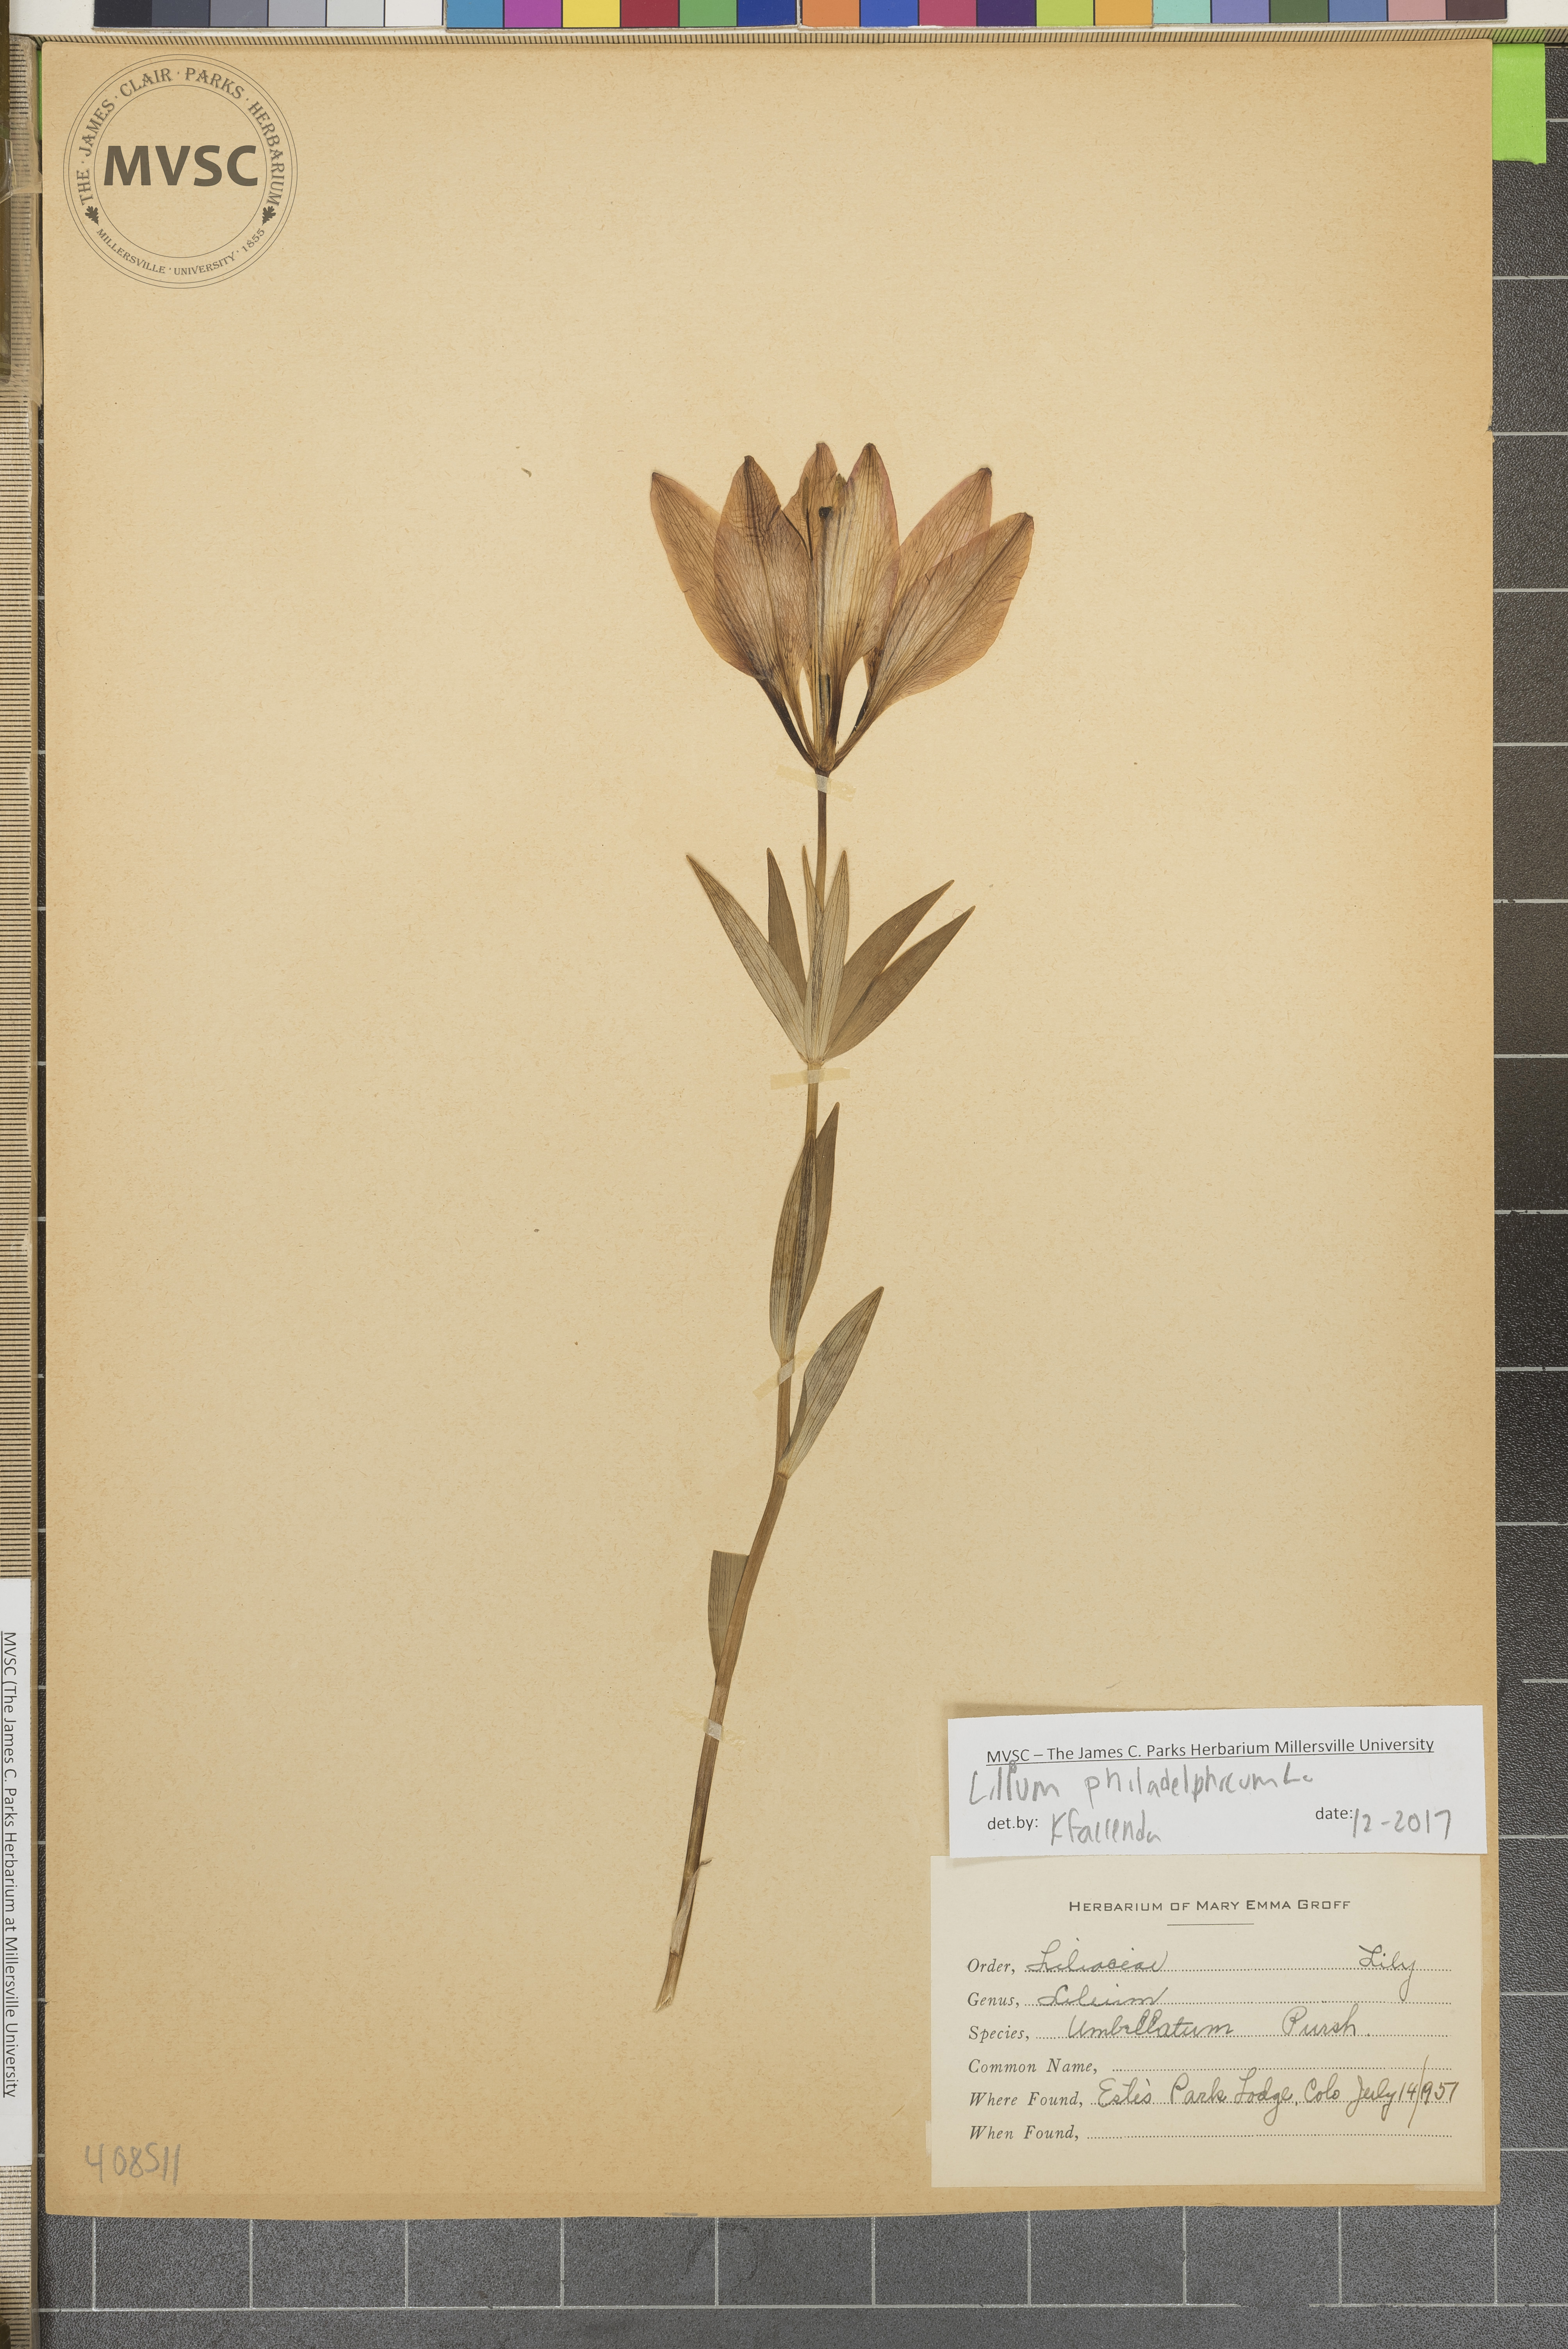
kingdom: Plantae
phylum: Tracheophyta
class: Liliopsida
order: Liliales
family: Liliaceae
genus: Lilium
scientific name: Lilium philadelphicum
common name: Red lily
